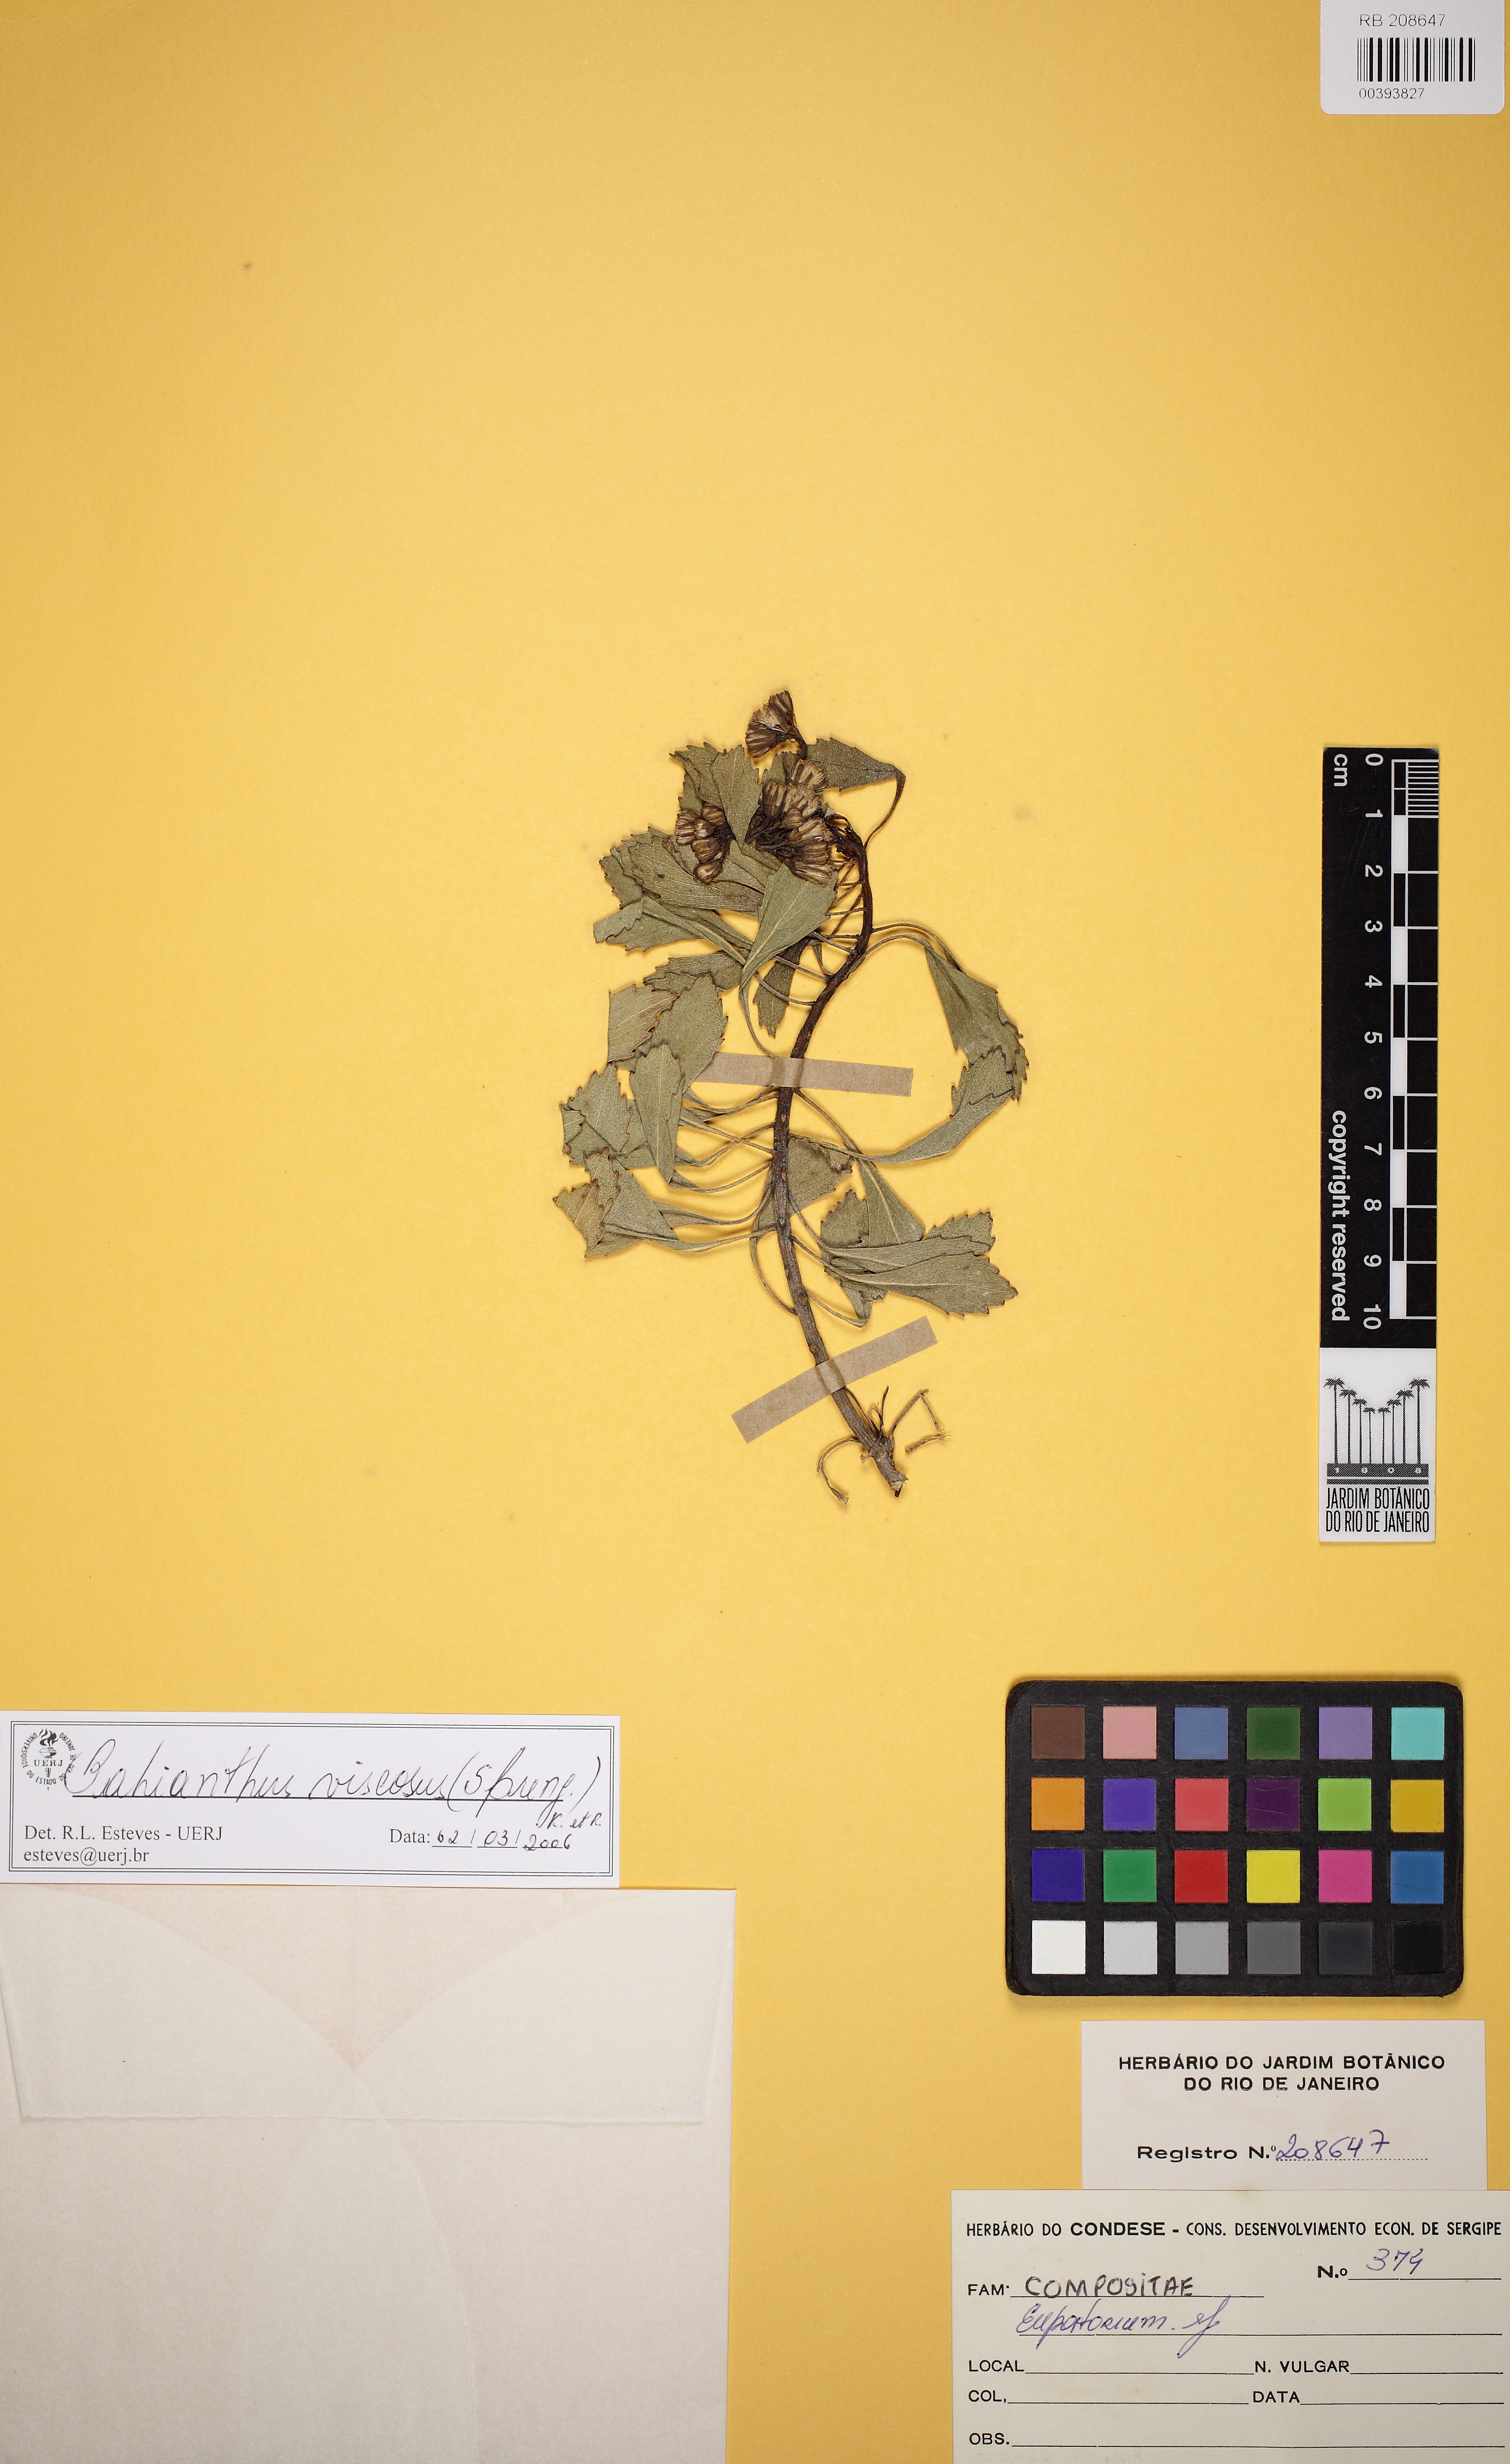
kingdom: Plantae
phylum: Tracheophyta
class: Magnoliopsida
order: Asterales
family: Asteraceae
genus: Bahianthus
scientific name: Bahianthus viscosus
